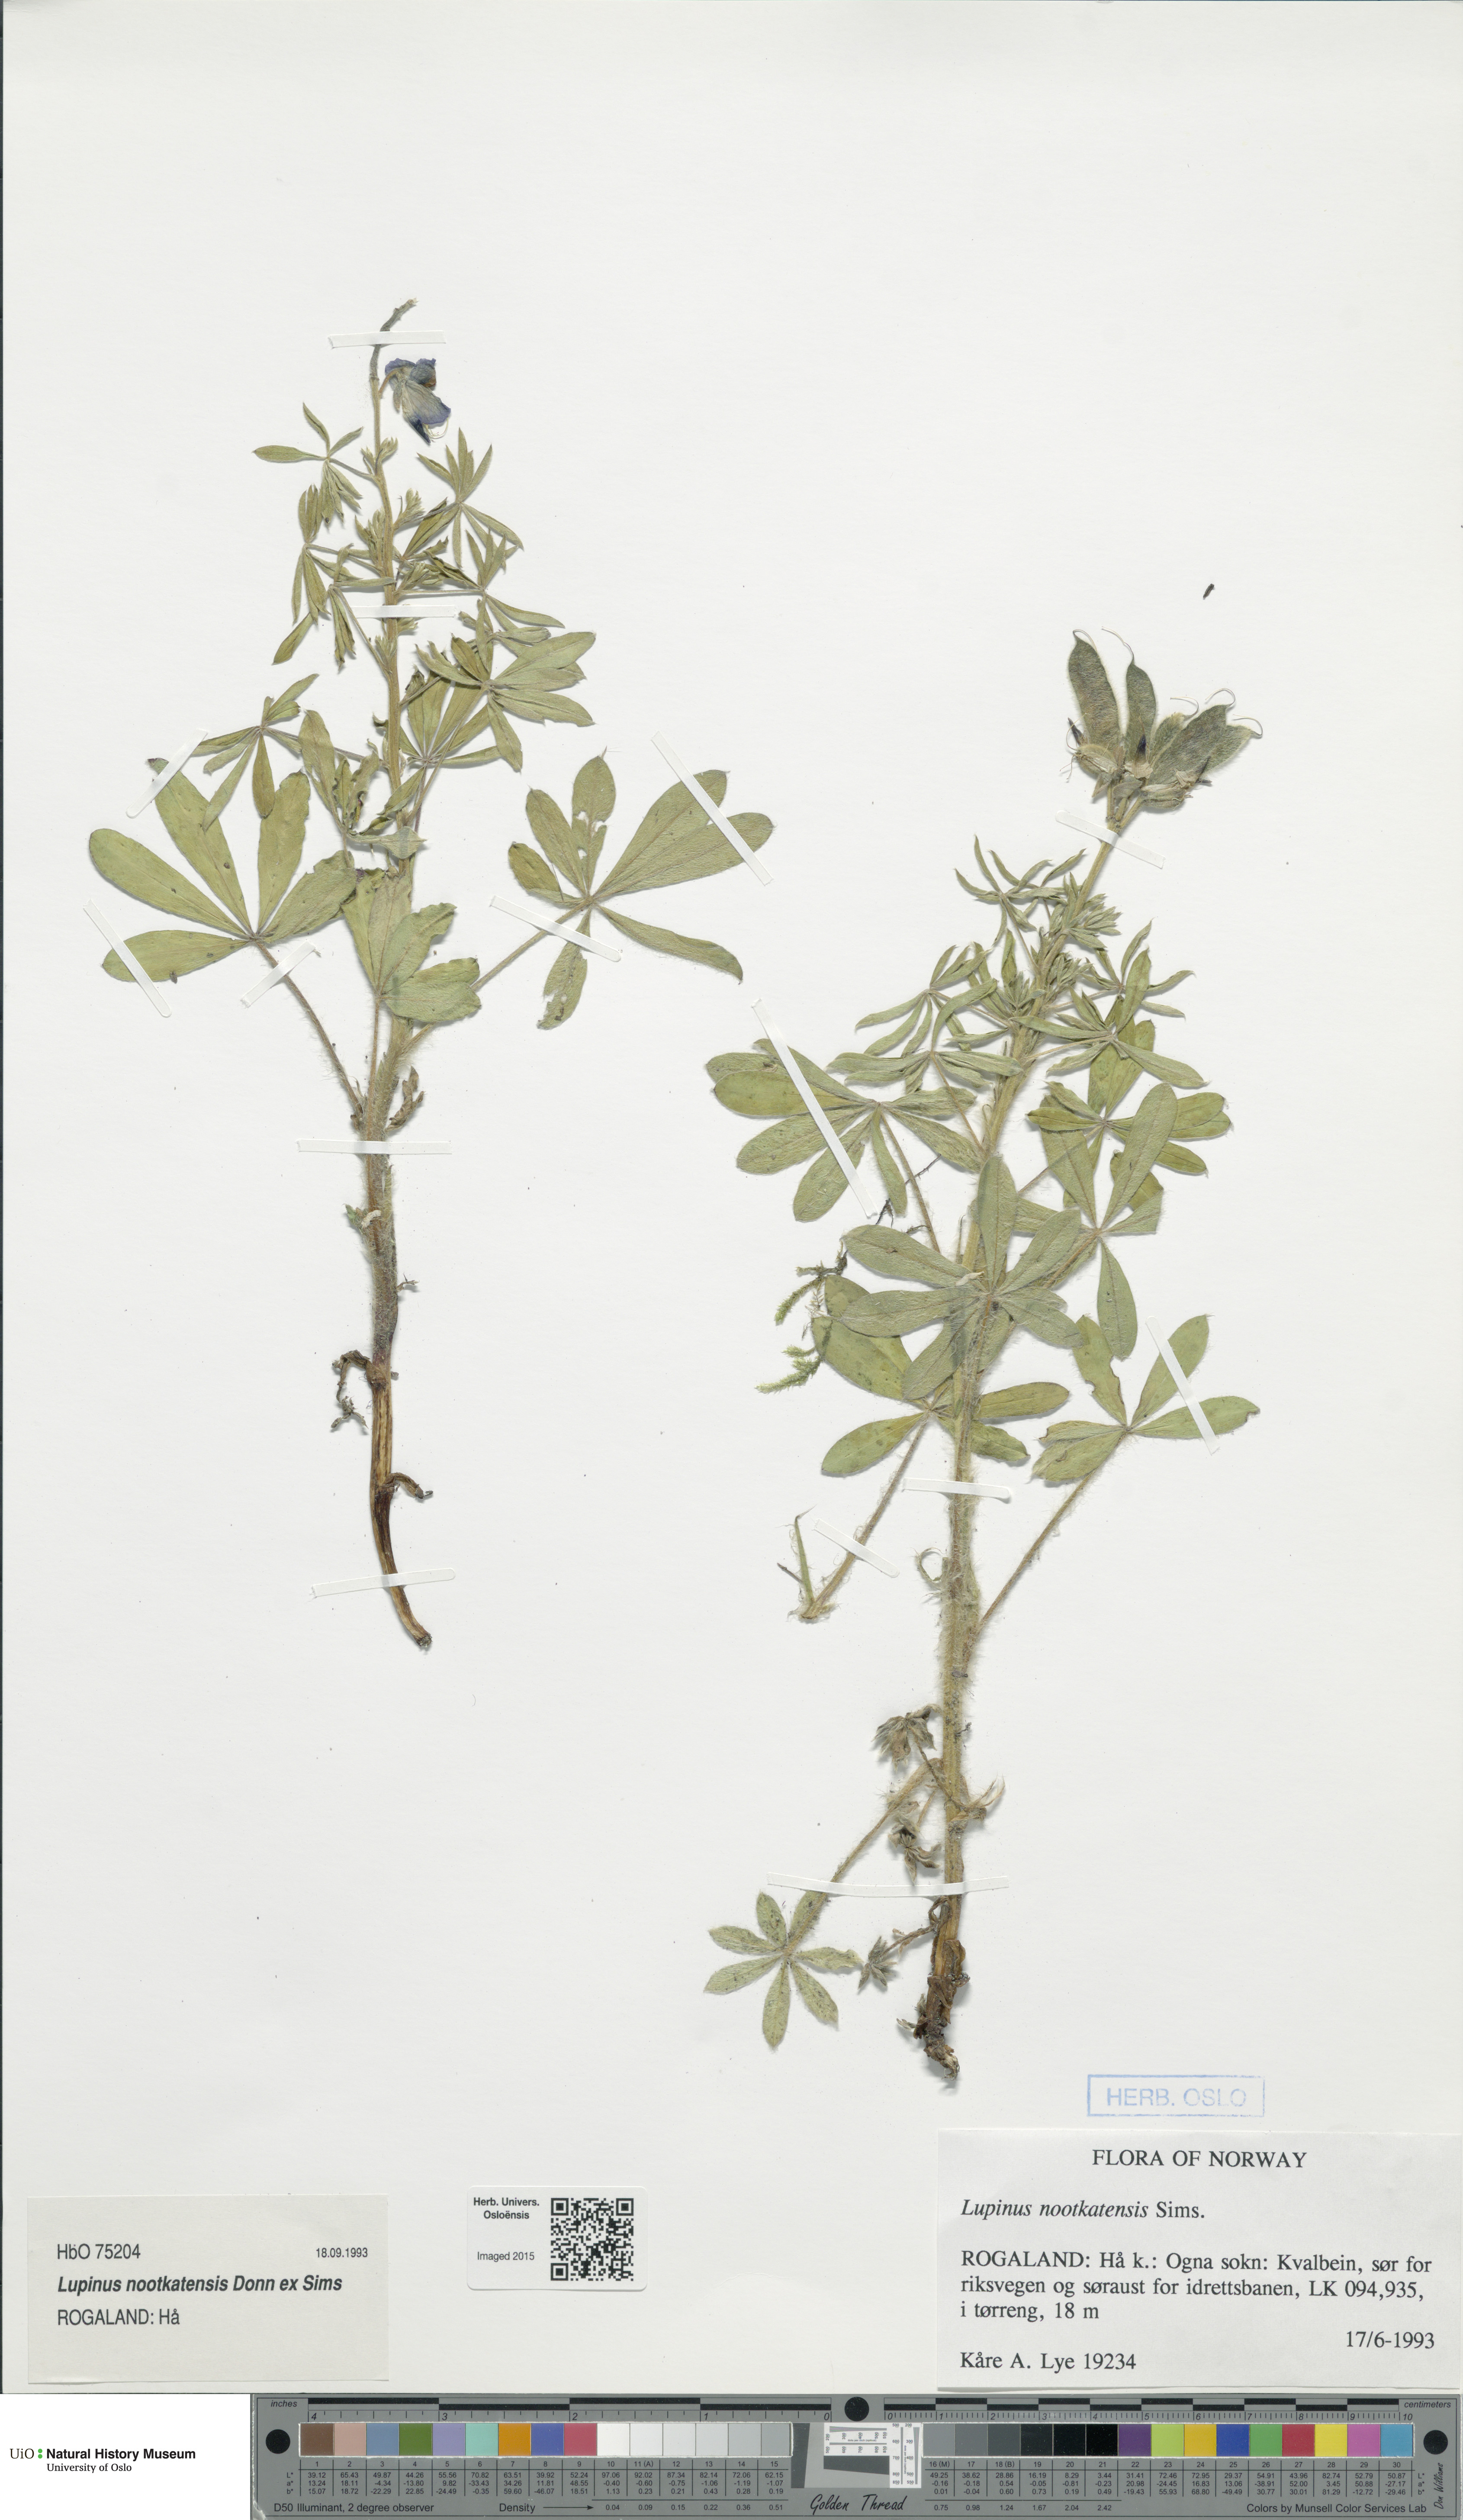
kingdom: Plantae
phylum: Tracheophyta
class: Magnoliopsida
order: Fabales
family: Fabaceae
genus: Lupinus
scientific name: Lupinus nootkatensis
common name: Nootka lupine
